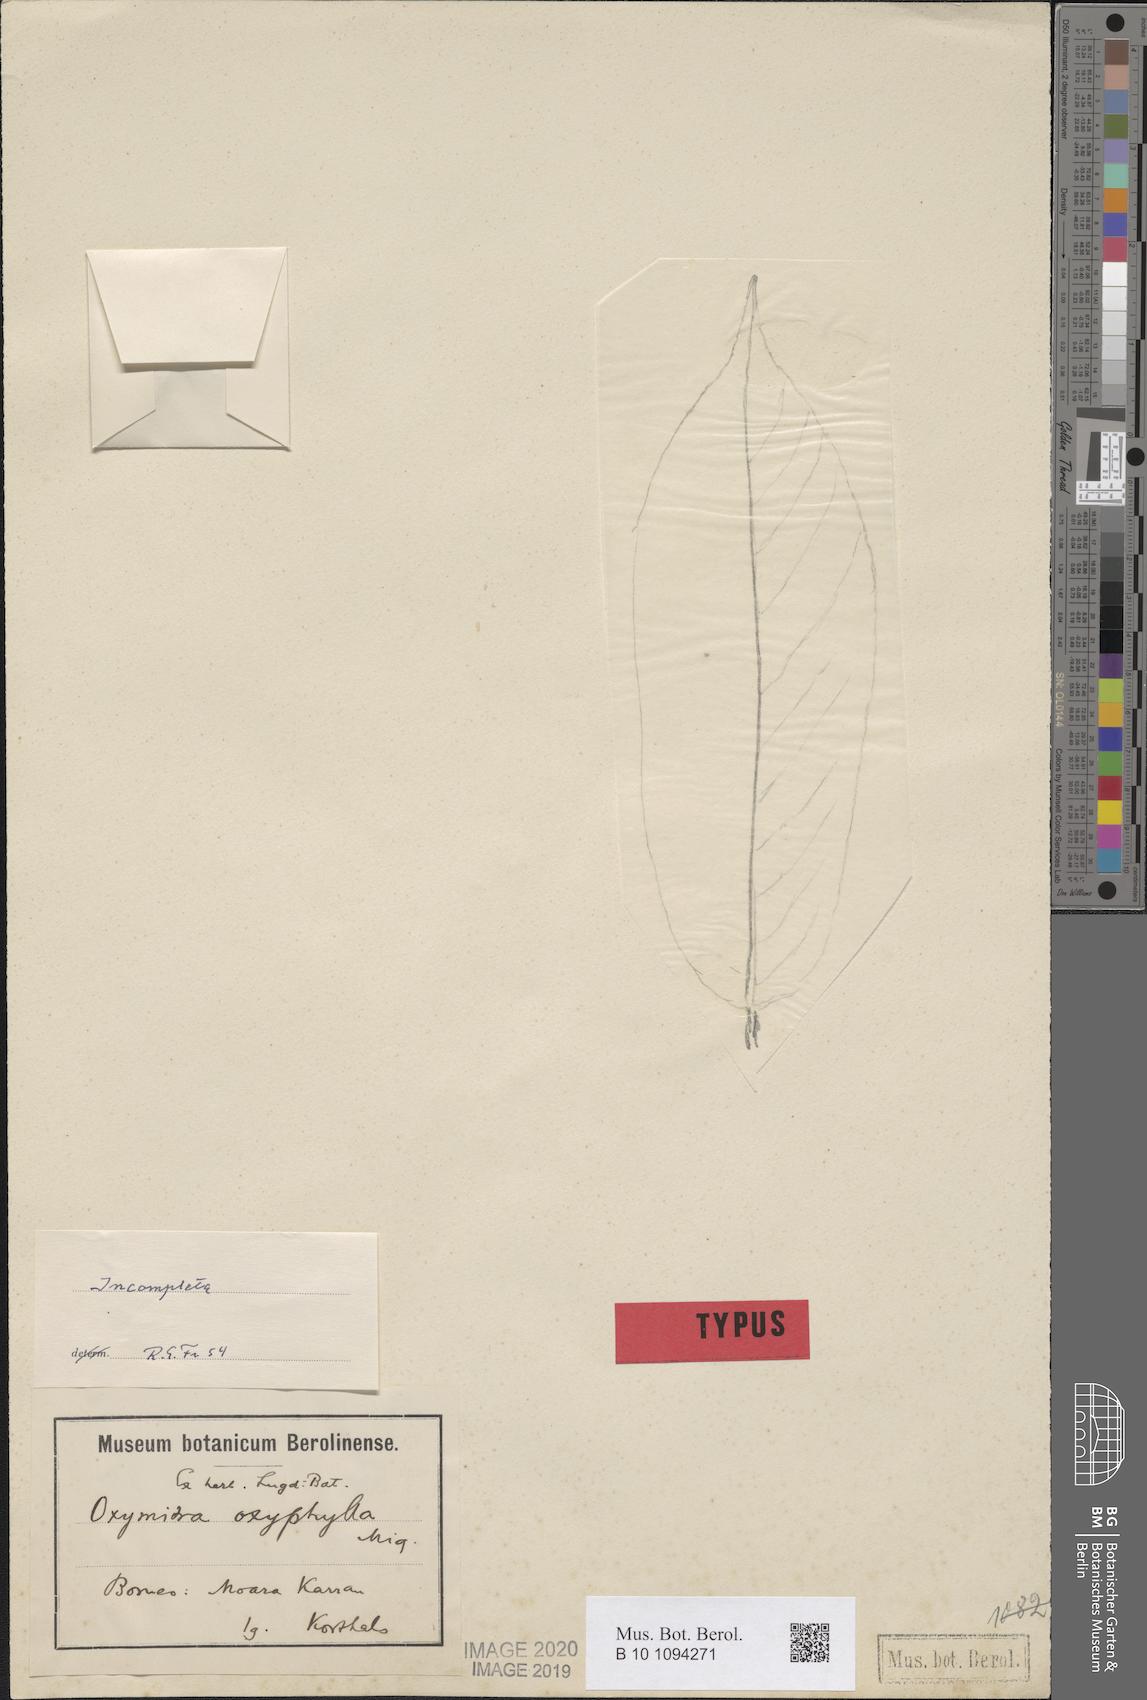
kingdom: Plantae
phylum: Tracheophyta
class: Magnoliopsida
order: Magnoliales
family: Annonaceae
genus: Friesodielsia
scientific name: Friesodielsia borneensis
